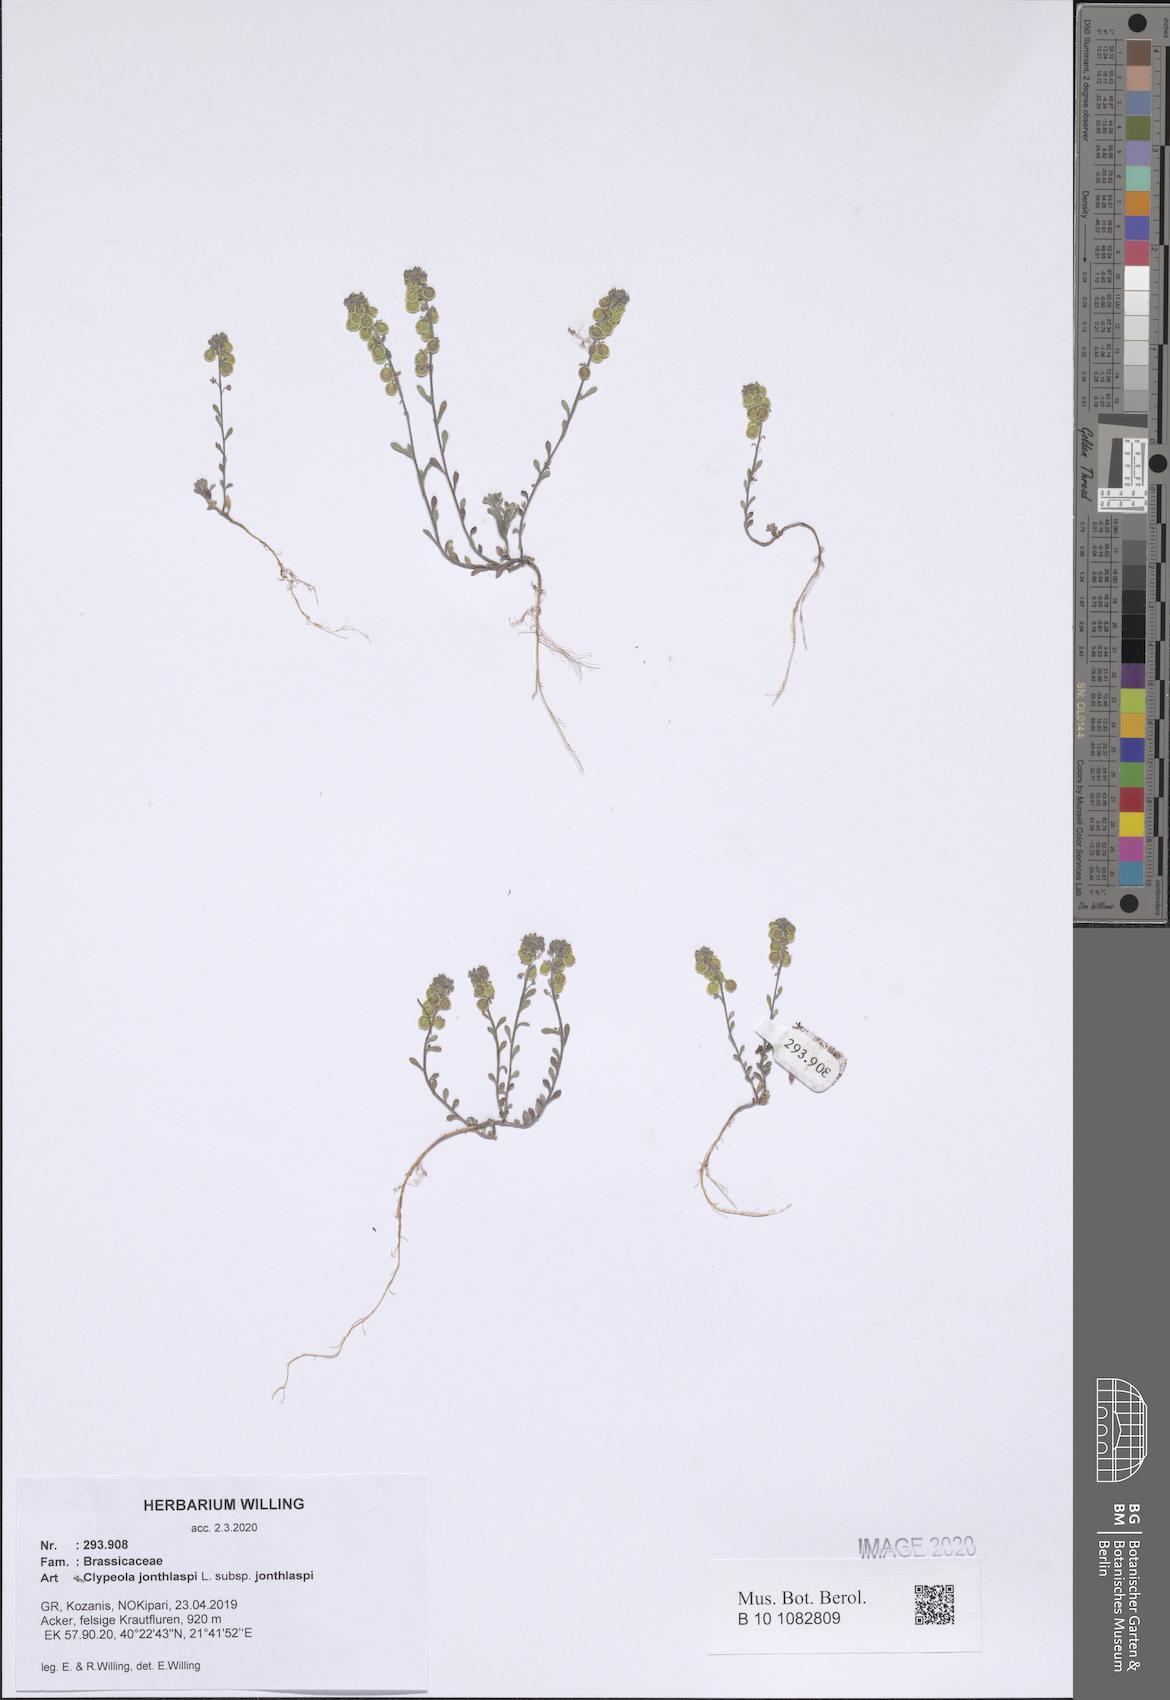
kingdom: Plantae
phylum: Tracheophyta
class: Magnoliopsida
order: Brassicales
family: Brassicaceae
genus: Clypeola
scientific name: Clypeola jonthlaspi
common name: Disk cress
